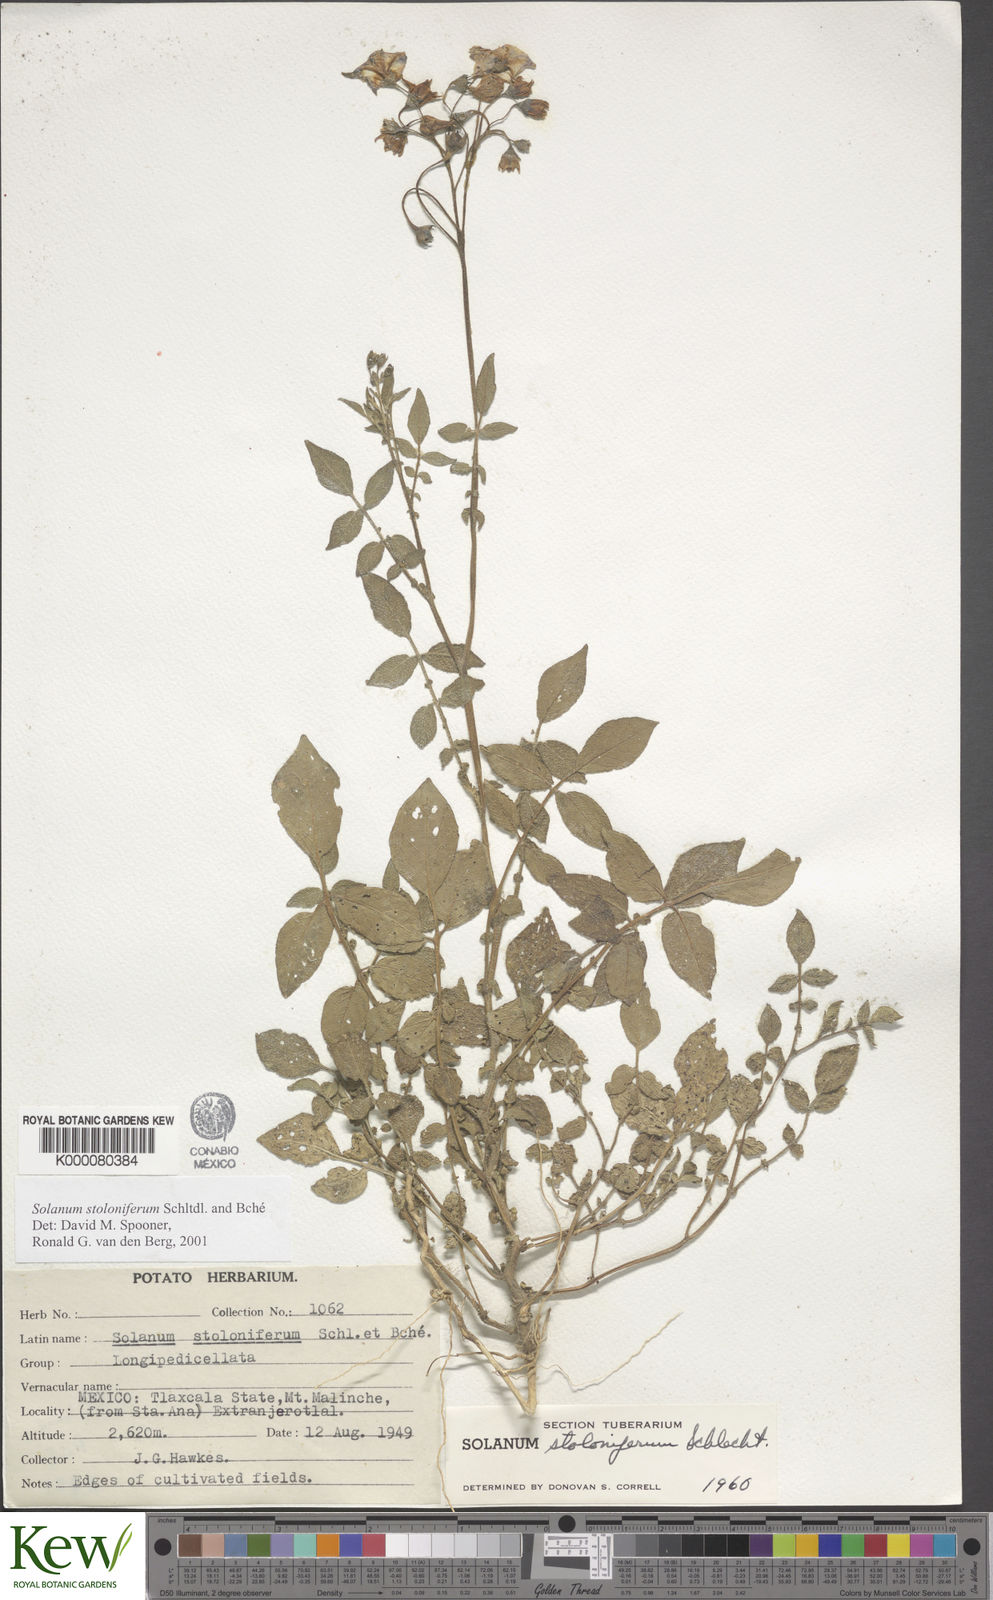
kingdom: Plantae
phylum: Tracheophyta
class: Magnoliopsida
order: Solanales
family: Solanaceae
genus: Solanum
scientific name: Solanum stoloniferum
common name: Fendler's nighshade
